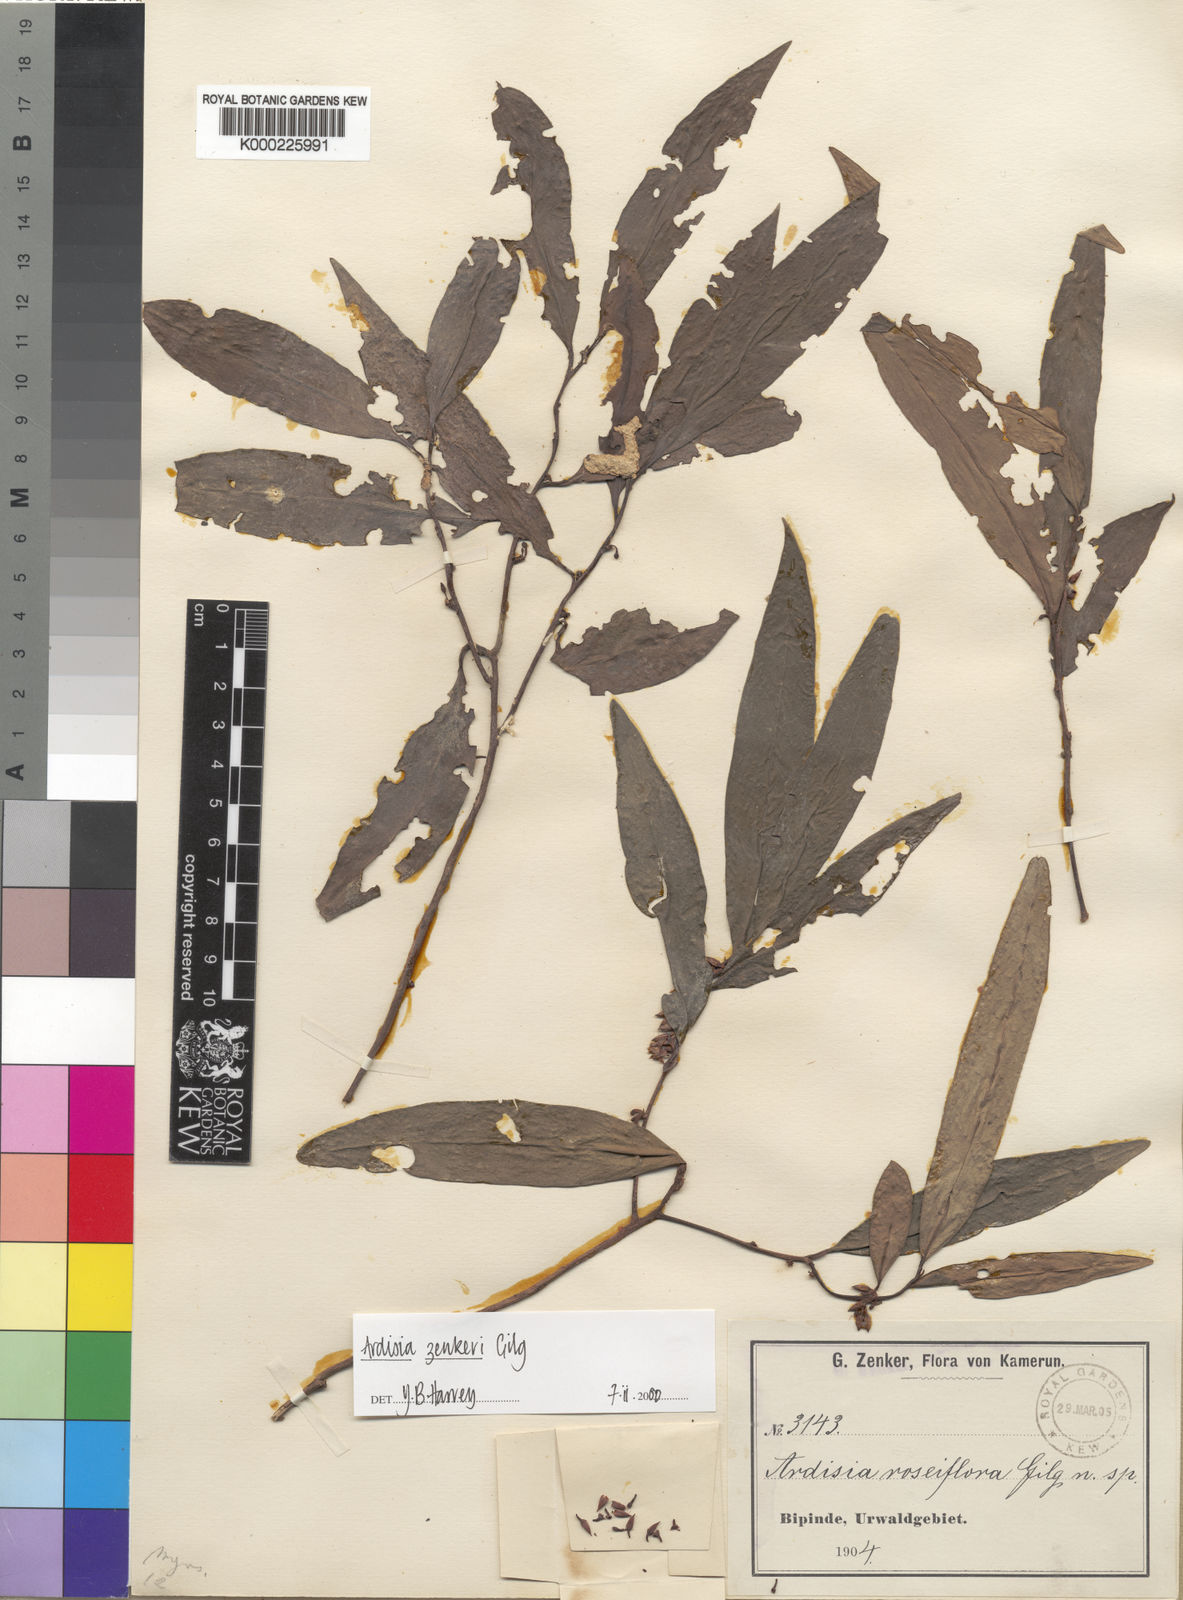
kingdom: Plantae
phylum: Tracheophyta
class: Magnoliopsida
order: Ericales
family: Primulaceae
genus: Ardisia
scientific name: Ardisia zenkeri
